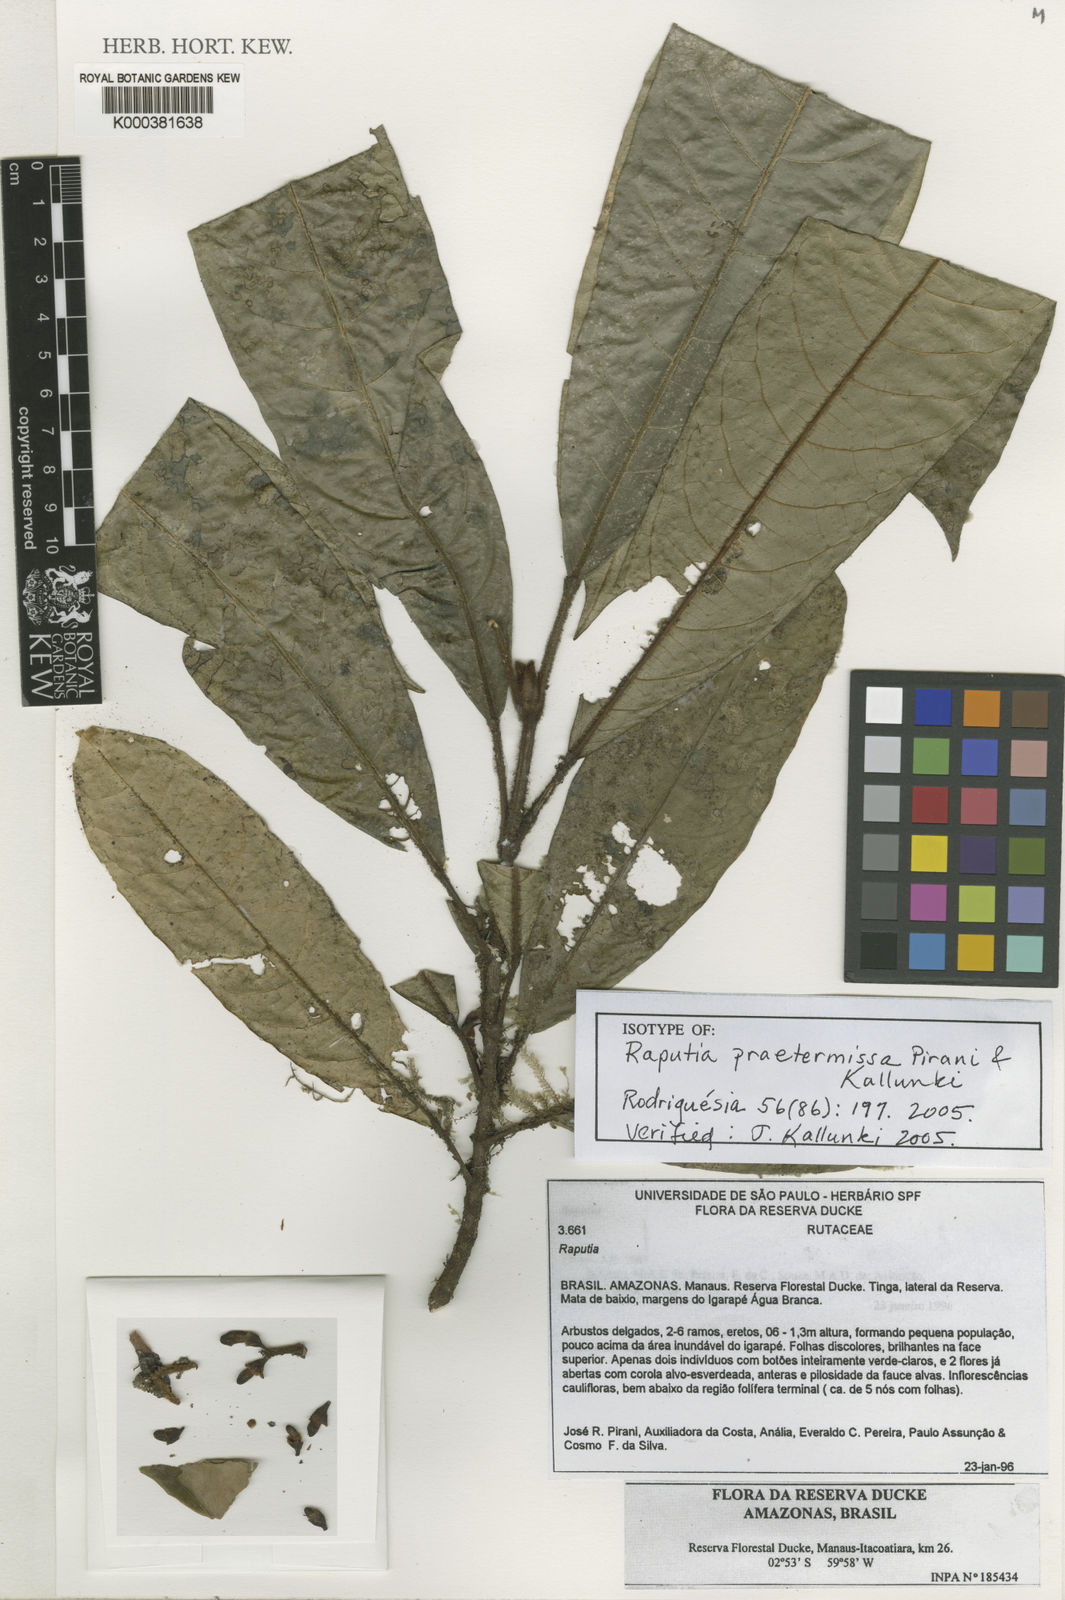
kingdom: Plantae
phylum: Tracheophyta
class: Magnoliopsida
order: Sapindales
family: Rutaceae
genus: Raputia
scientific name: Raputia praetermissa
